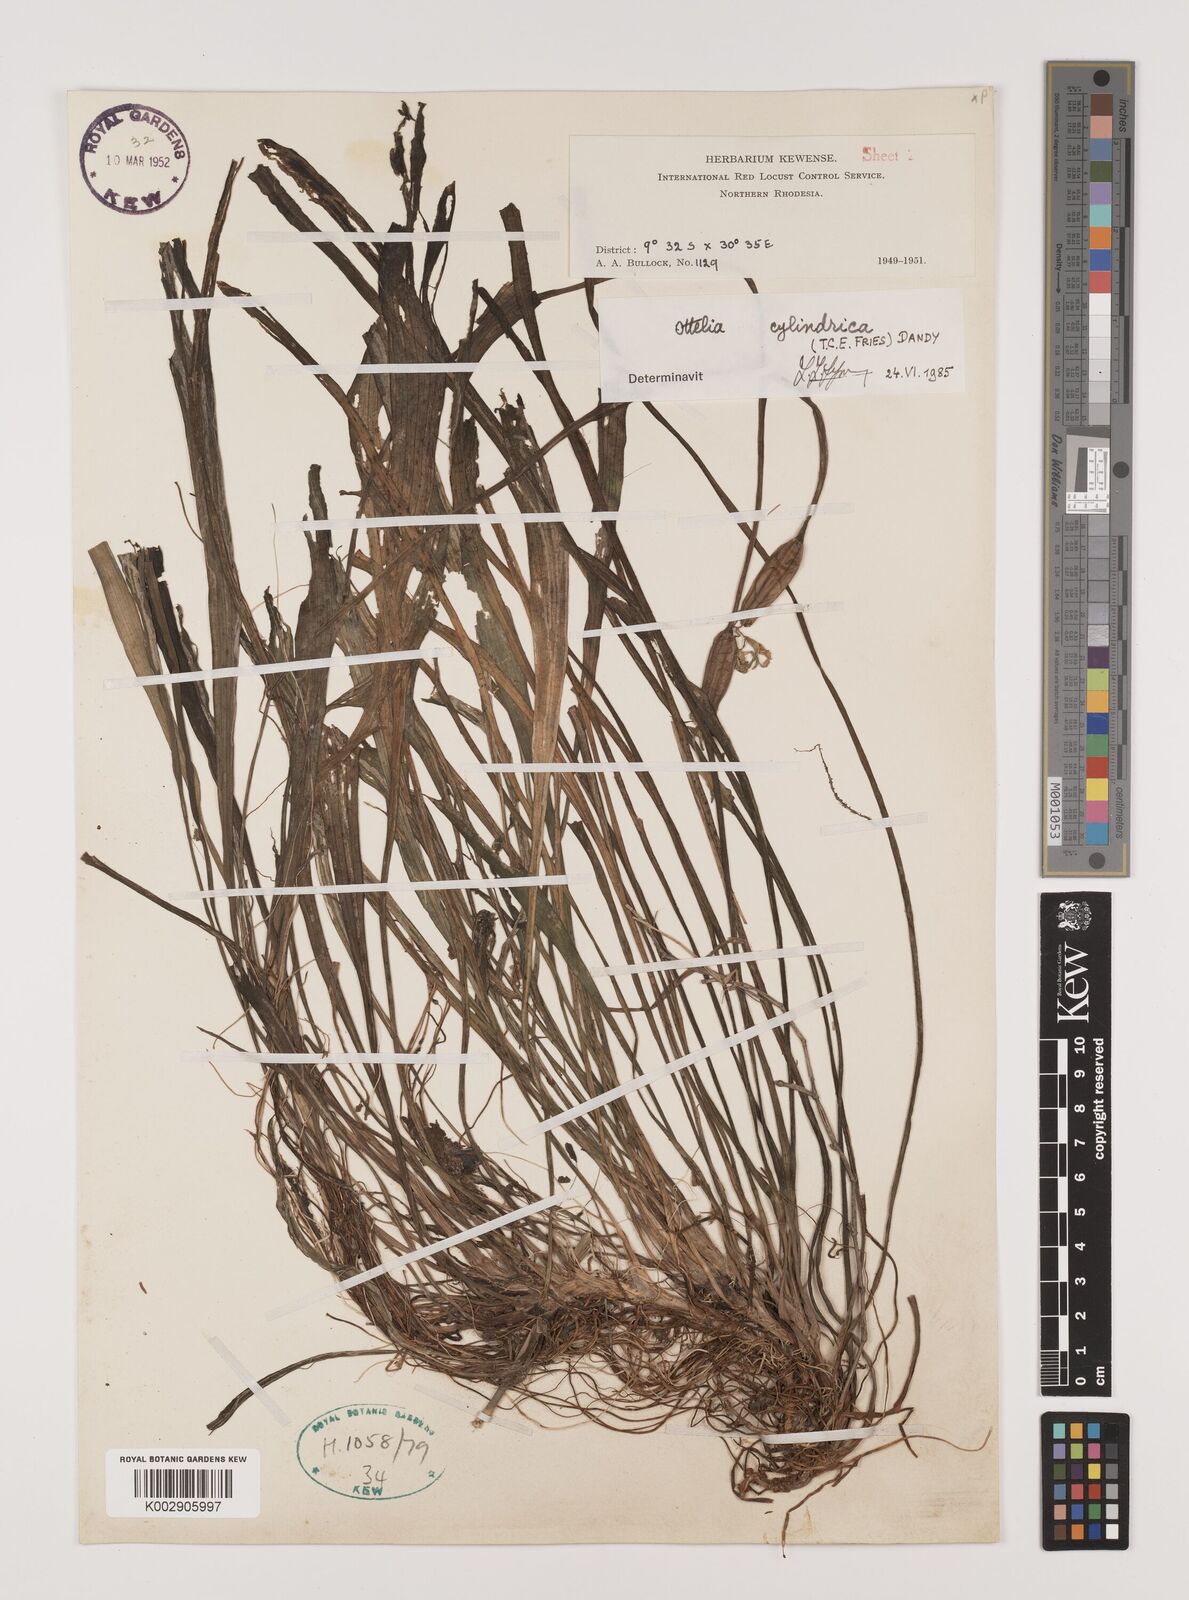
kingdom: Plantae
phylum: Tracheophyta
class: Liliopsida
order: Alismatales
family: Hydrocharitaceae
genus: Ottelia
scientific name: Ottelia cylindrica
